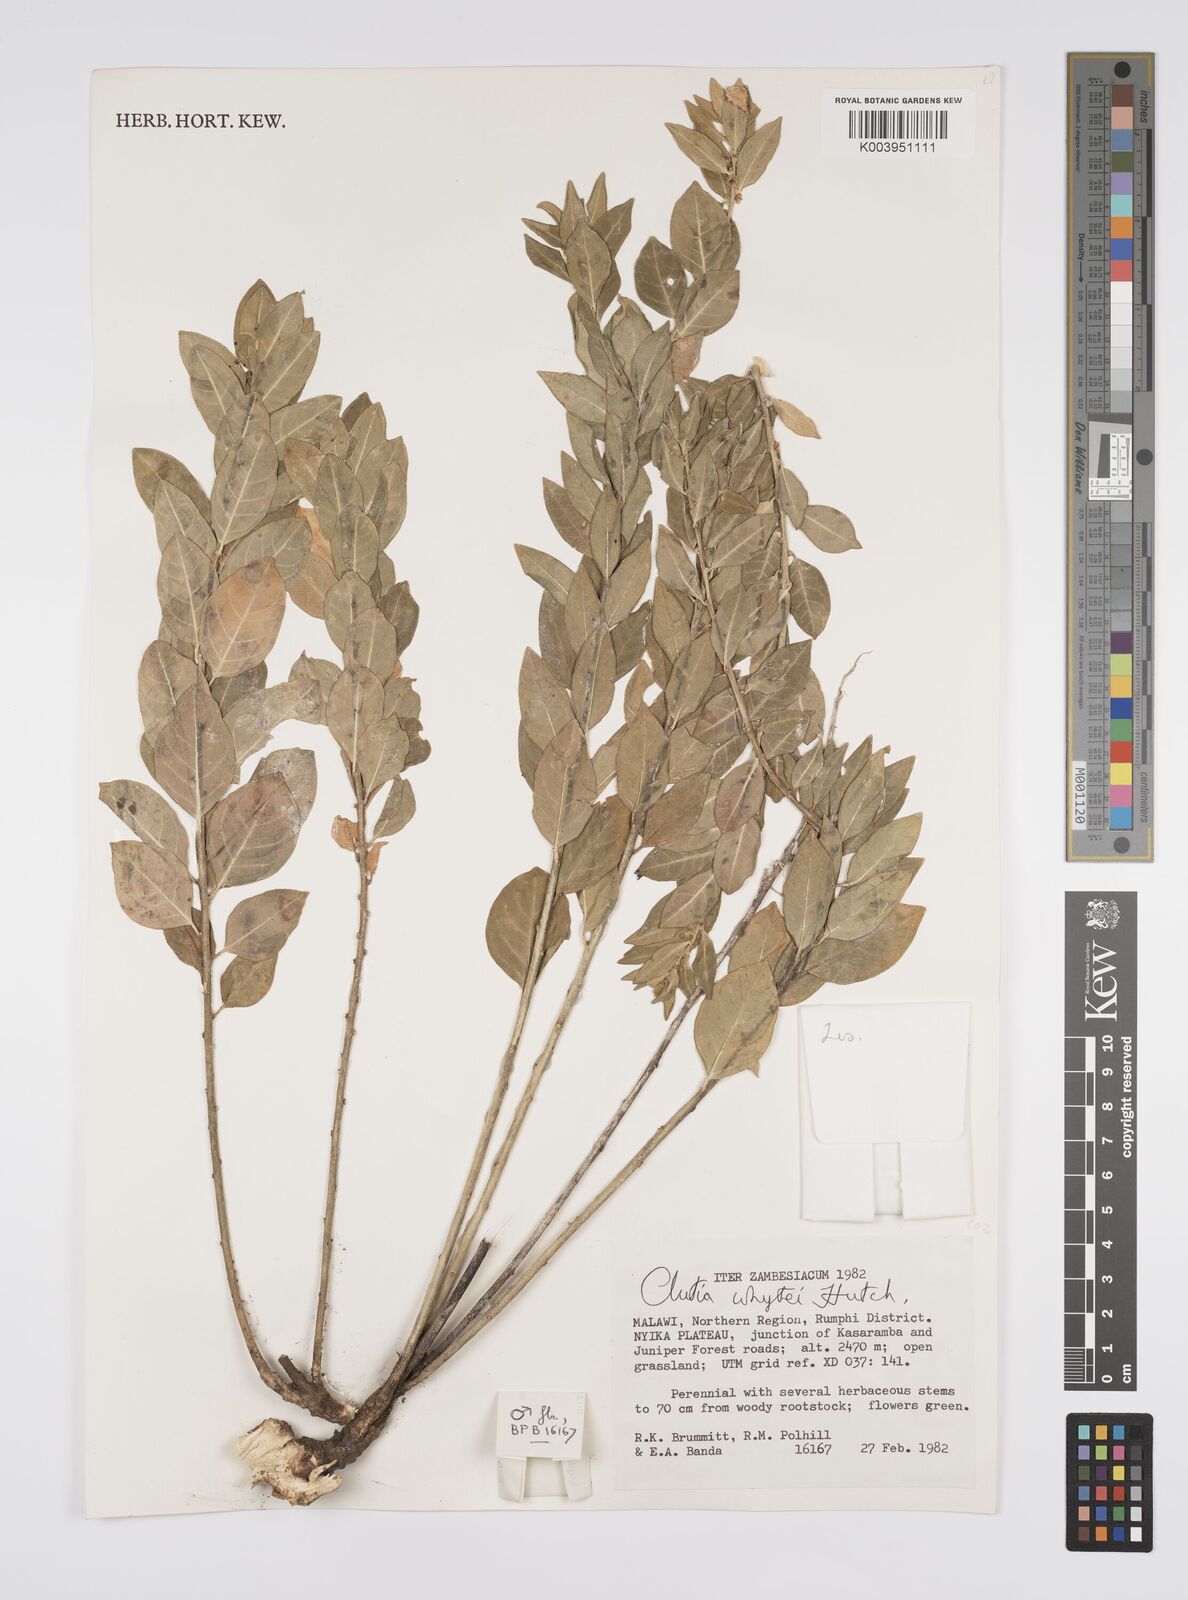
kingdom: Plantae
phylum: Tracheophyta
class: Magnoliopsida
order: Malpighiales
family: Peraceae
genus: Clutia
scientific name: Clutia
